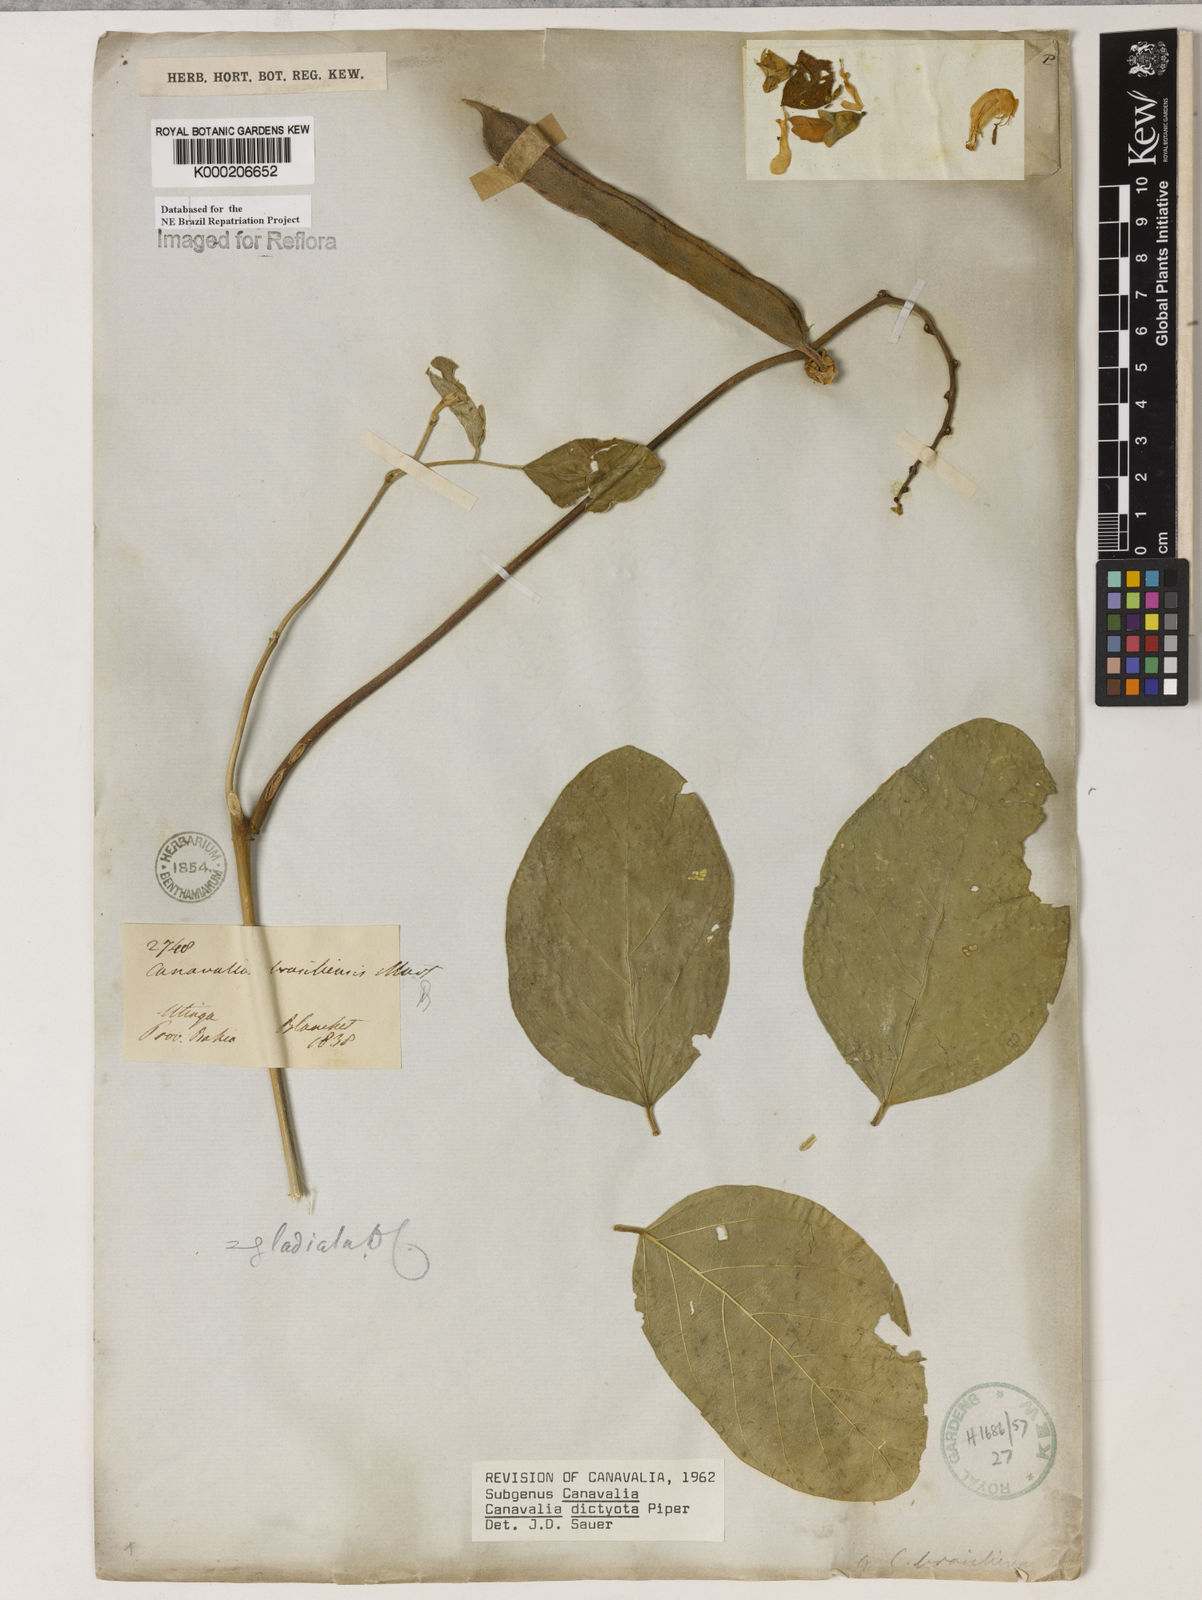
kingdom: Plantae
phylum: Tracheophyta
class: Magnoliopsida
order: Fabales
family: Fabaceae
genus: Canavalia
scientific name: Canavalia brasiliensis
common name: Barbicou-bean
